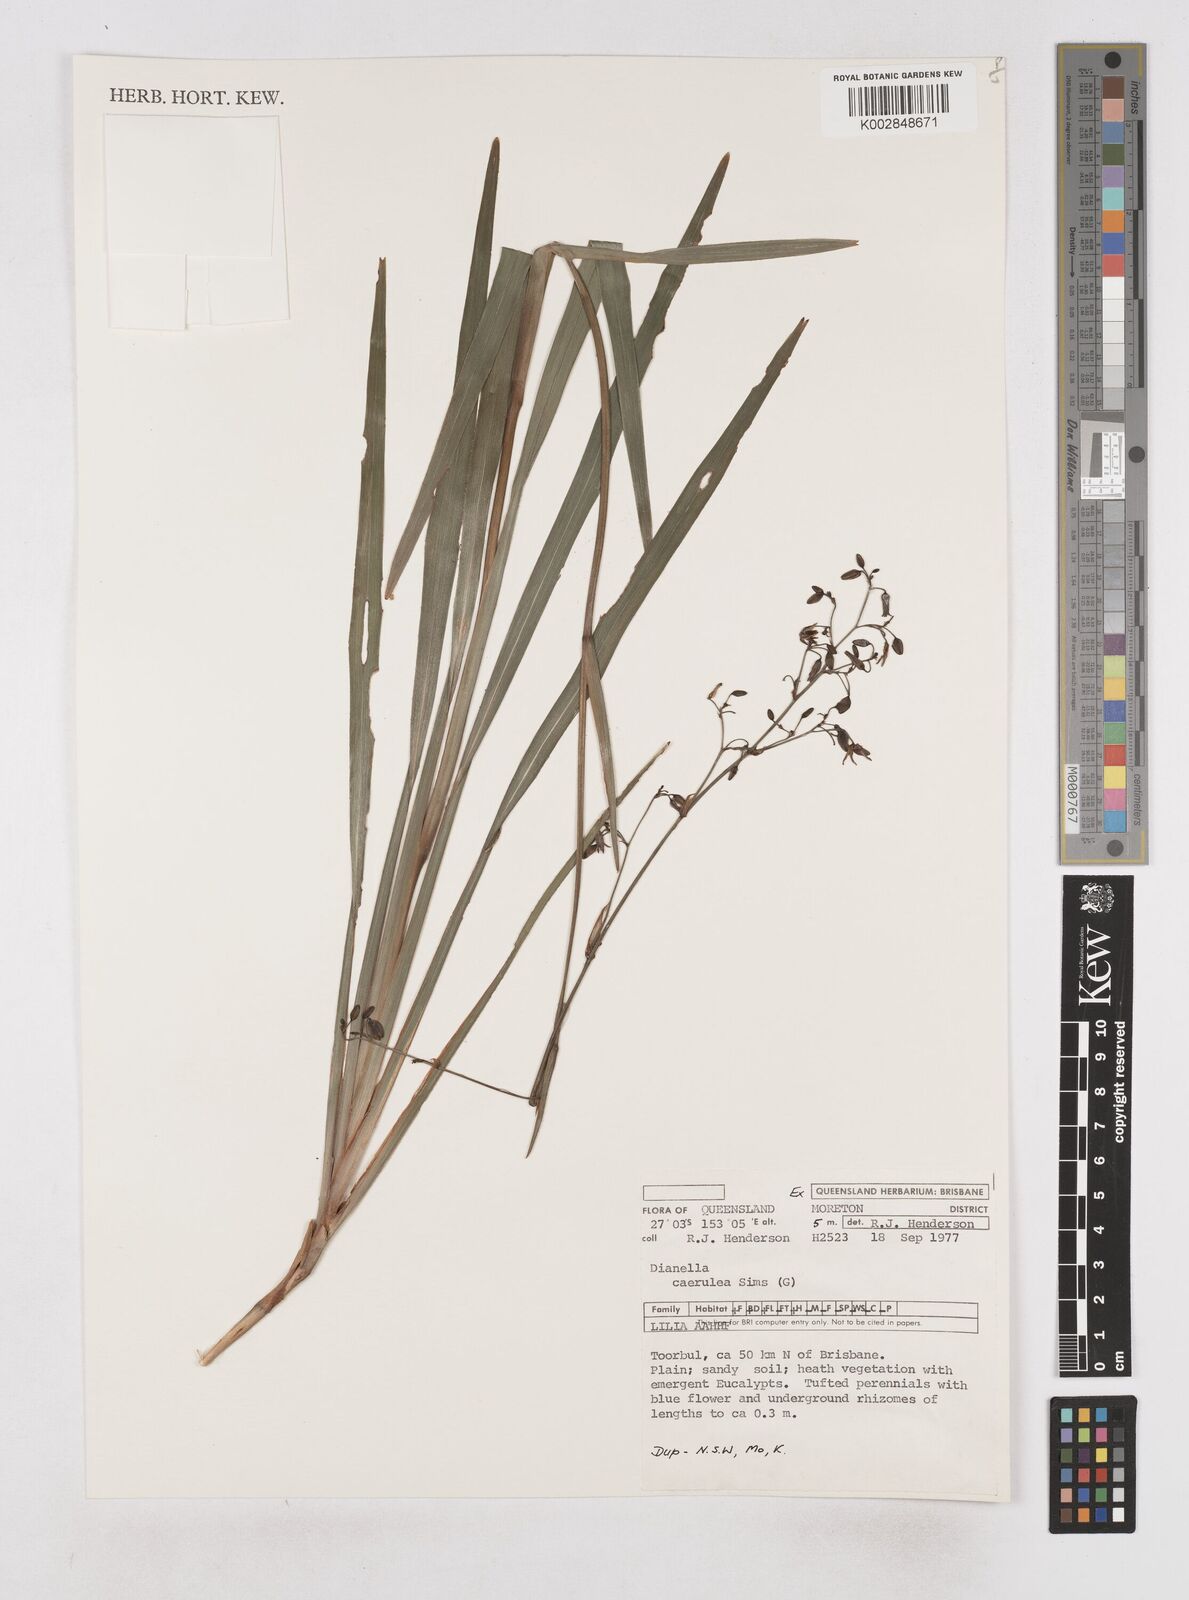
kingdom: Plantae
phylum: Tracheophyta
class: Liliopsida
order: Asparagales
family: Asphodelaceae
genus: Dianella
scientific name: Dianella caerulea
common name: Blue flax-lily
